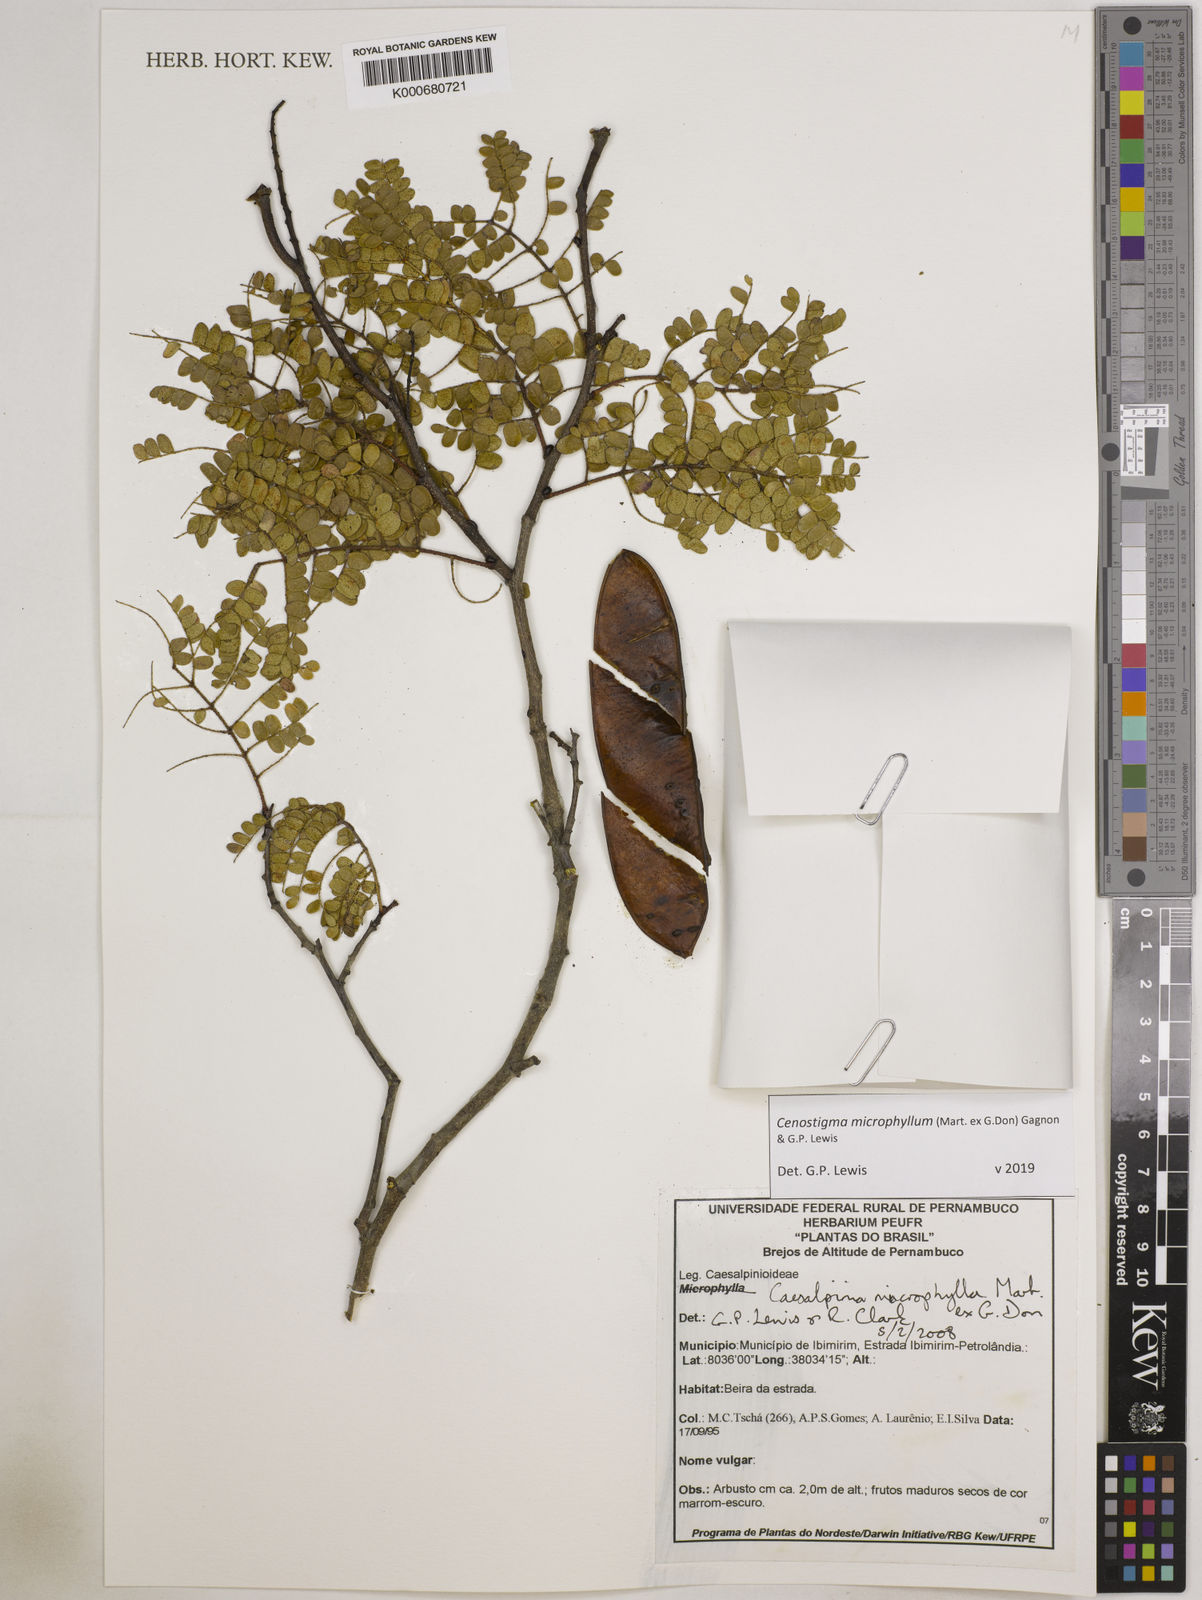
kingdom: Plantae
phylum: Tracheophyta
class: Magnoliopsida
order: Fabales
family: Fabaceae
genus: Cenostigma
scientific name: Cenostigma microphyllum
